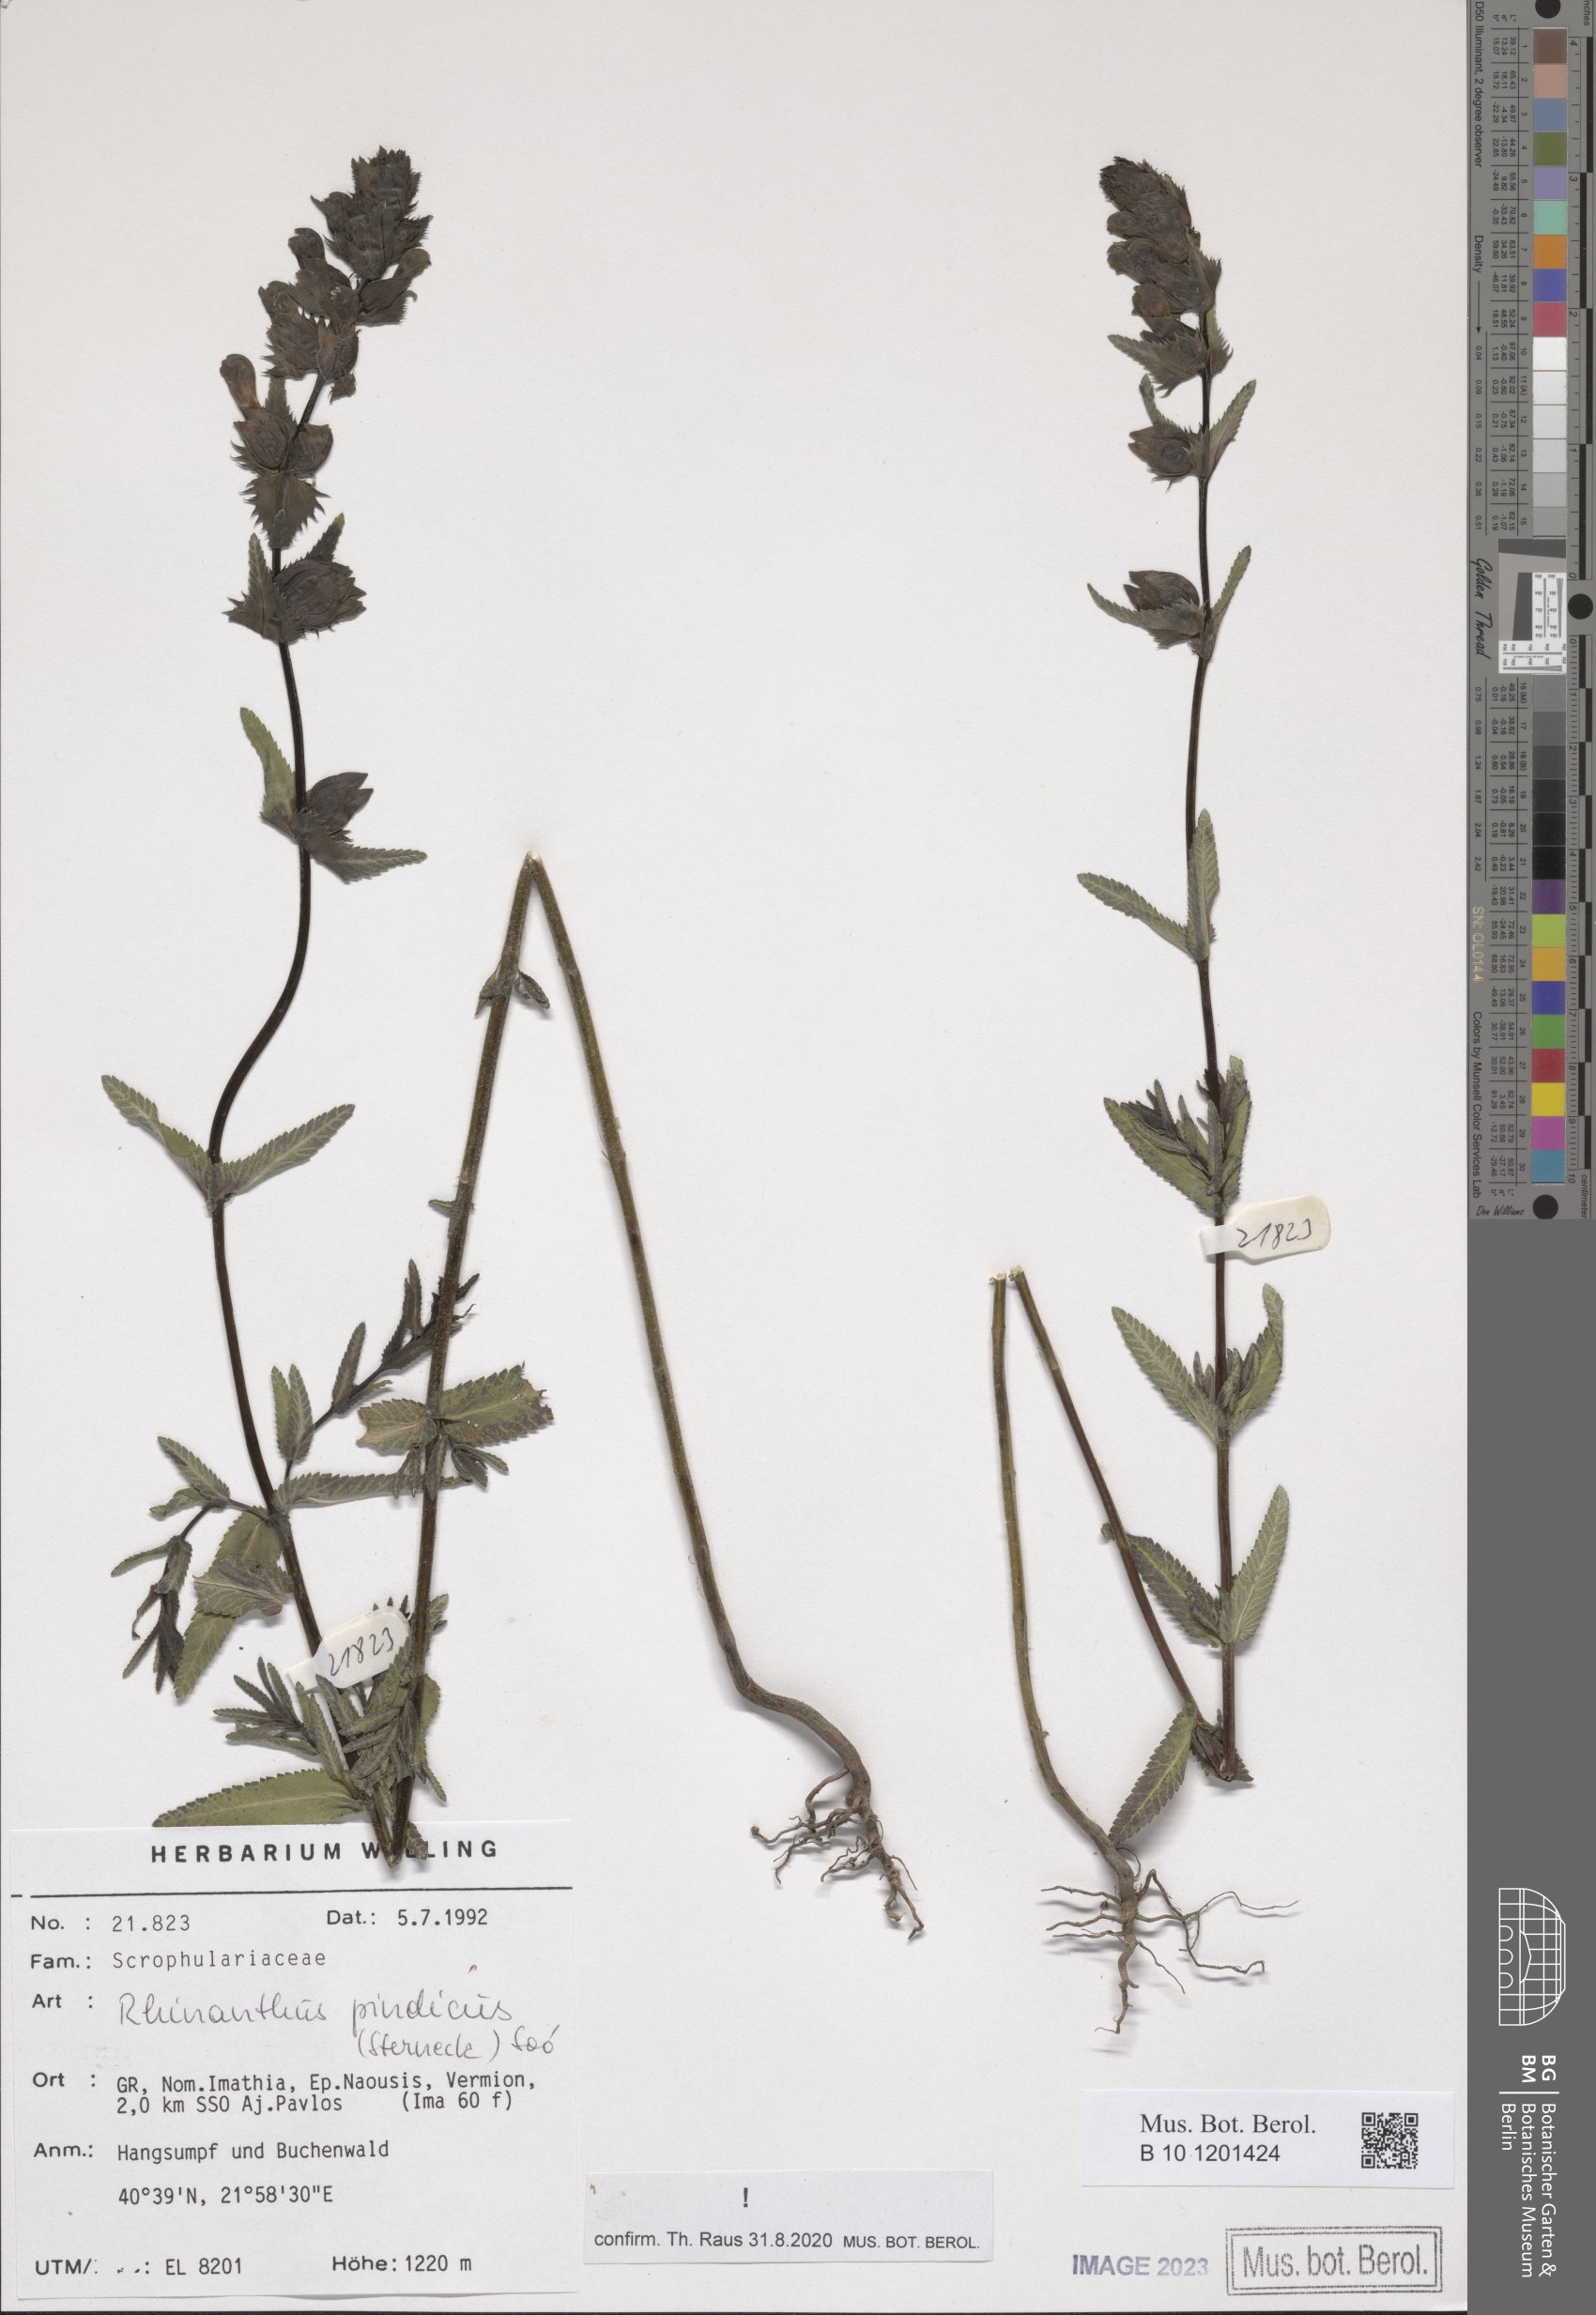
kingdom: Plantae
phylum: Tracheophyta
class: Magnoliopsida
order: Lamiales
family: Orobanchaceae
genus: Rhinanthus
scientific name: Rhinanthus pindicus
